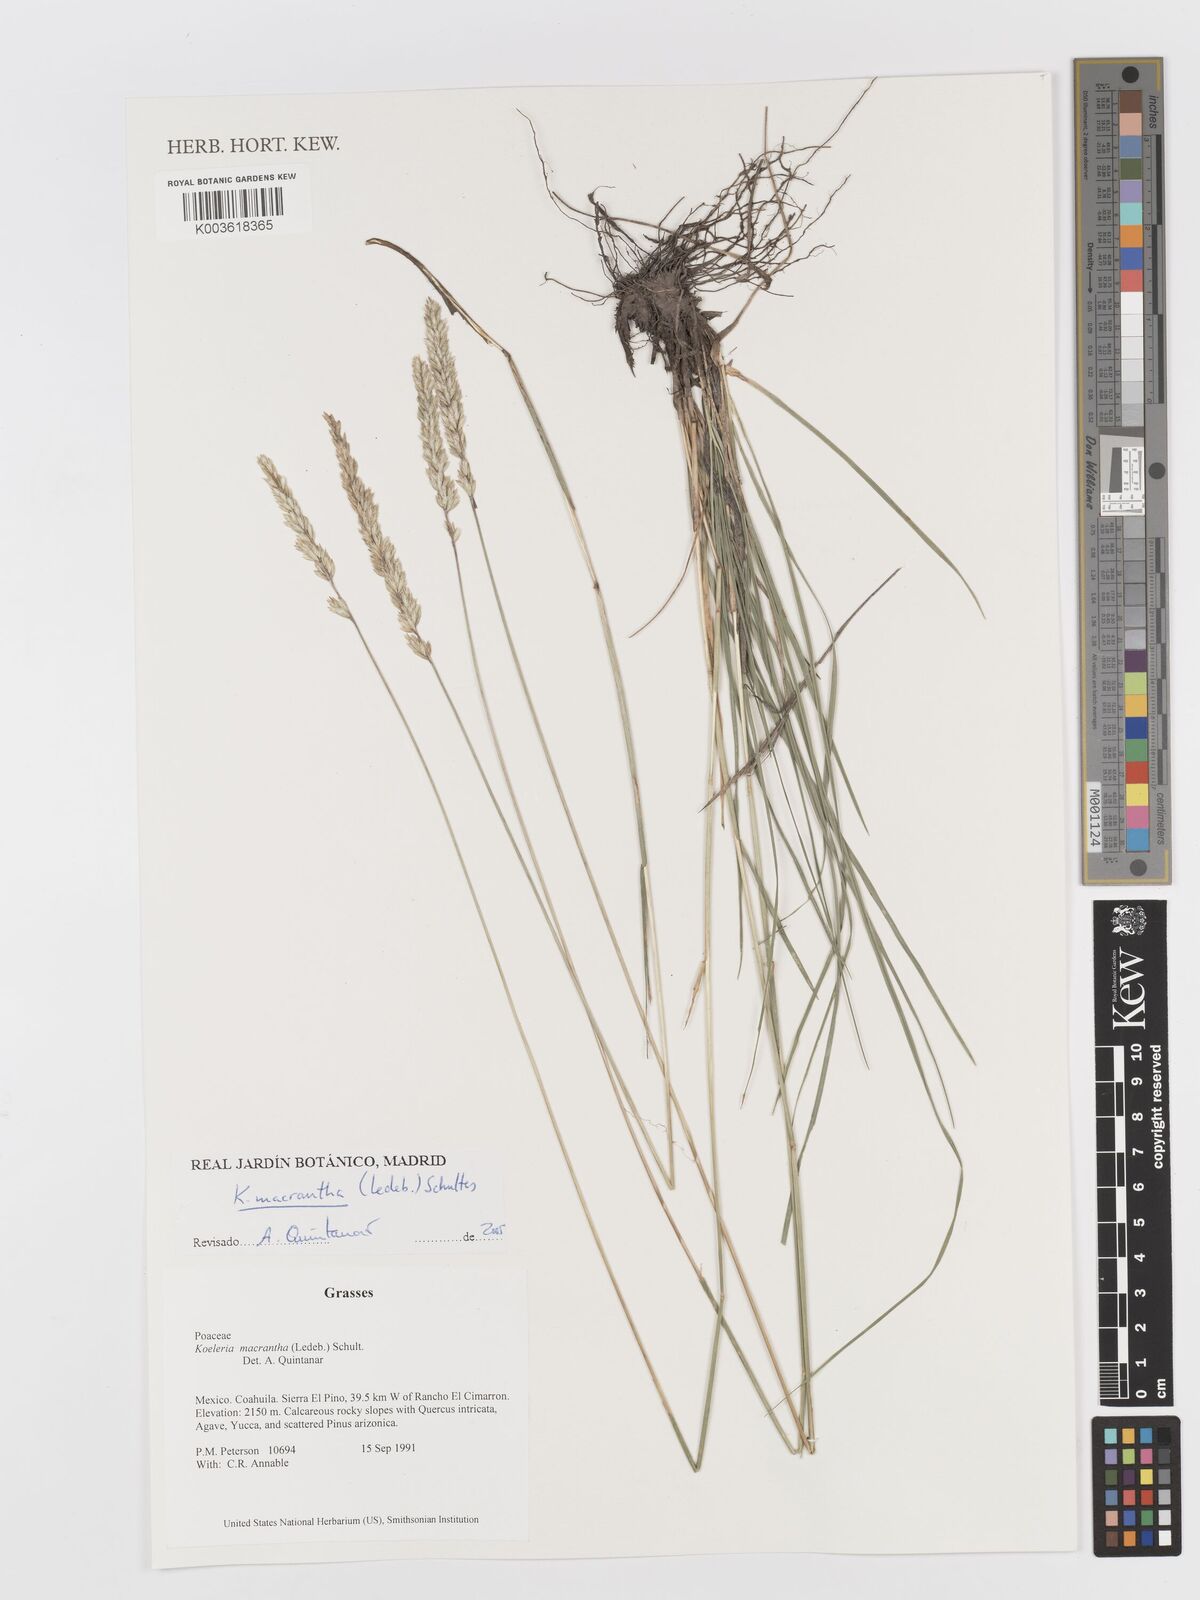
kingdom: Plantae
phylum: Tracheophyta
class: Liliopsida
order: Poales
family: Poaceae
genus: Koeleria
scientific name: Koeleria pyramidata
